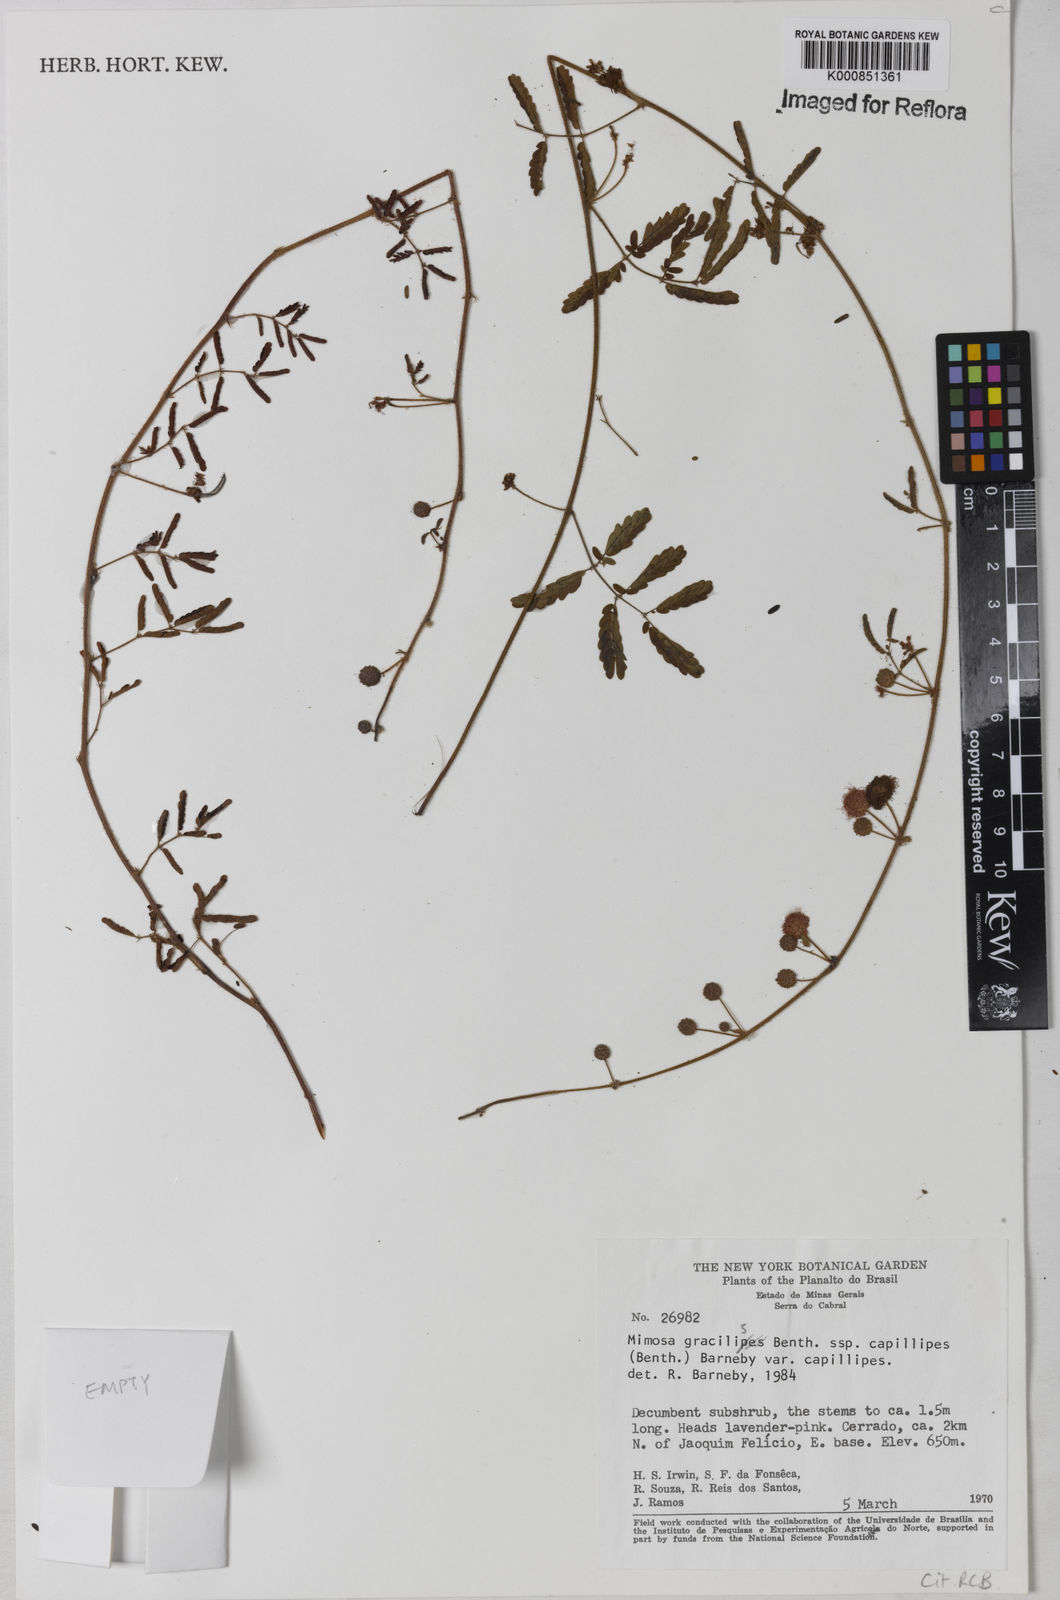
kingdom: Plantae
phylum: Tracheophyta
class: Magnoliopsida
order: Fabales
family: Fabaceae
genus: Mimosa
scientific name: Mimosa gracilis
